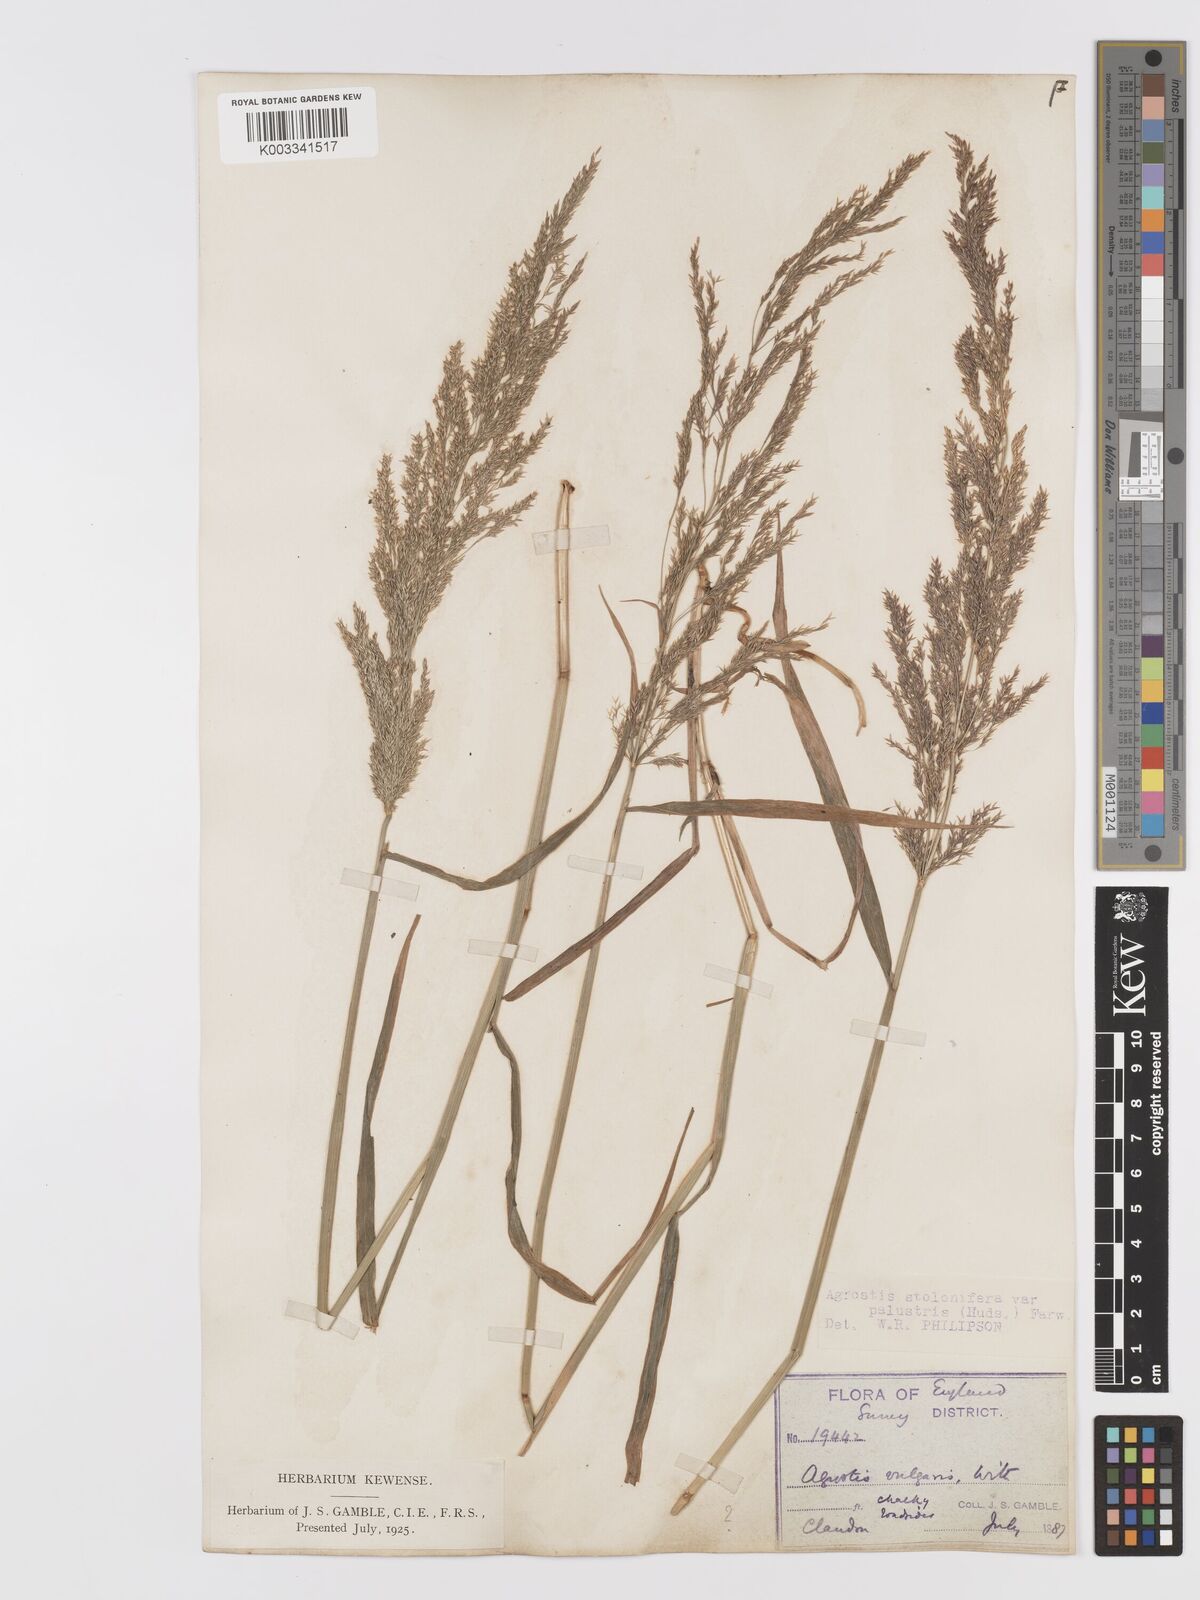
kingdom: Plantae
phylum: Tracheophyta
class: Liliopsida
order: Poales
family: Poaceae
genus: Agrostis
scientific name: Agrostis stolonifera
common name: Creeping bentgrass
